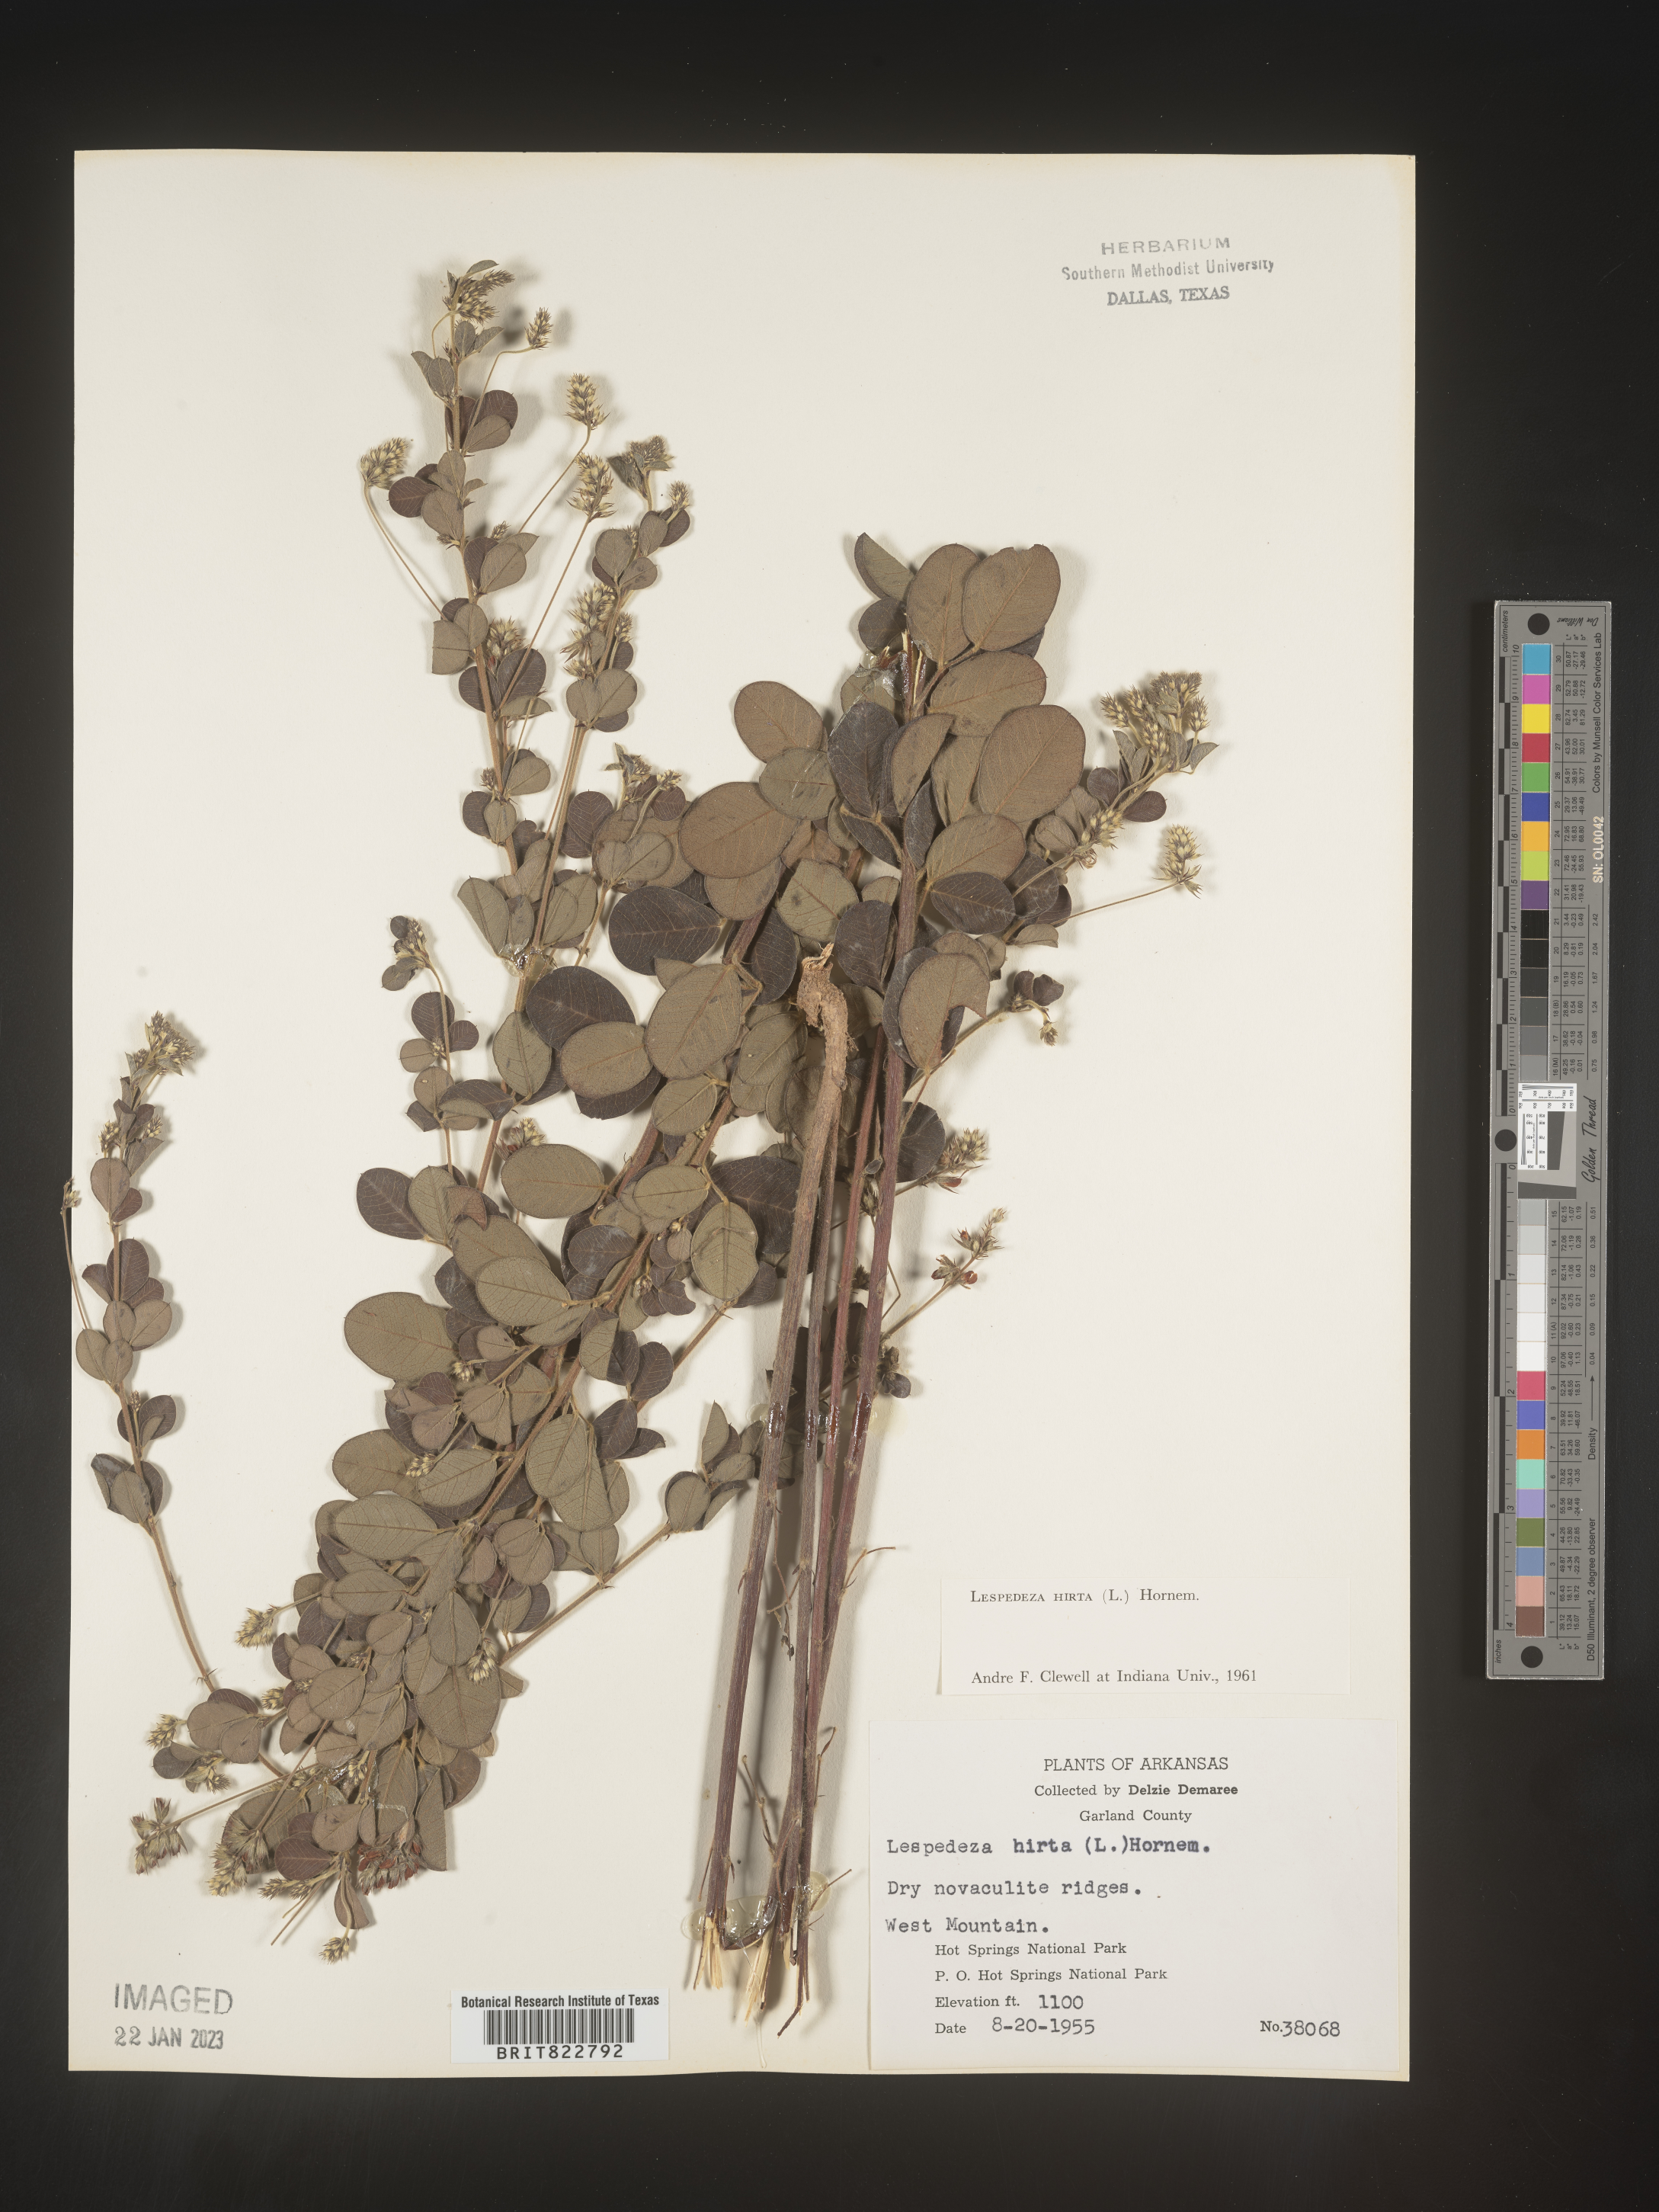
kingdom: Plantae
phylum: Tracheophyta
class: Magnoliopsida
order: Fabales
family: Fabaceae
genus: Lespedeza
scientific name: Lespedeza hirta
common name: Hairy lespedeza
